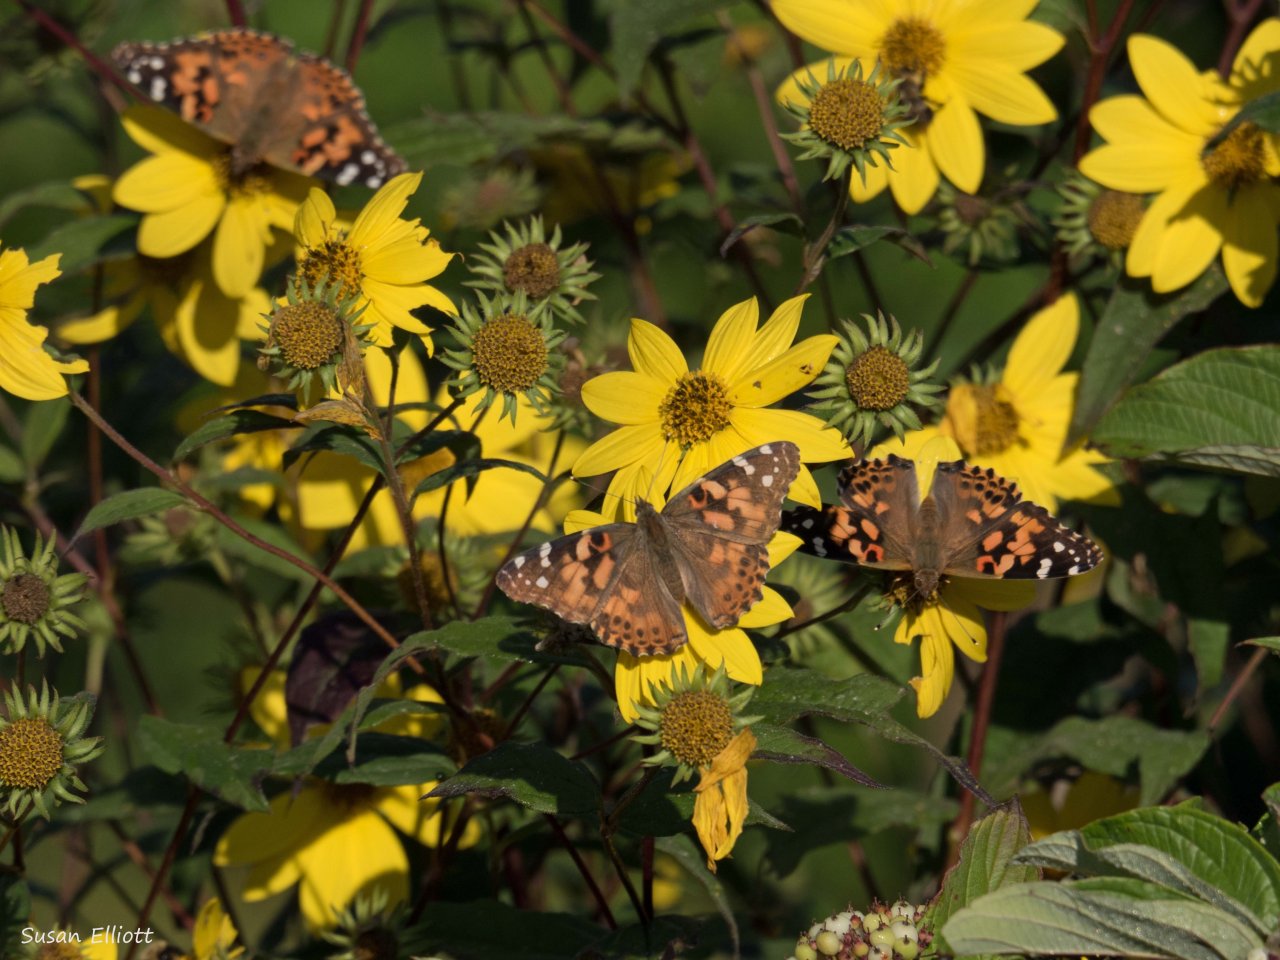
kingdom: Animalia
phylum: Arthropoda
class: Insecta
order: Lepidoptera
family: Nymphalidae
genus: Vanessa
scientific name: Vanessa cardui
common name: Painted Lady
